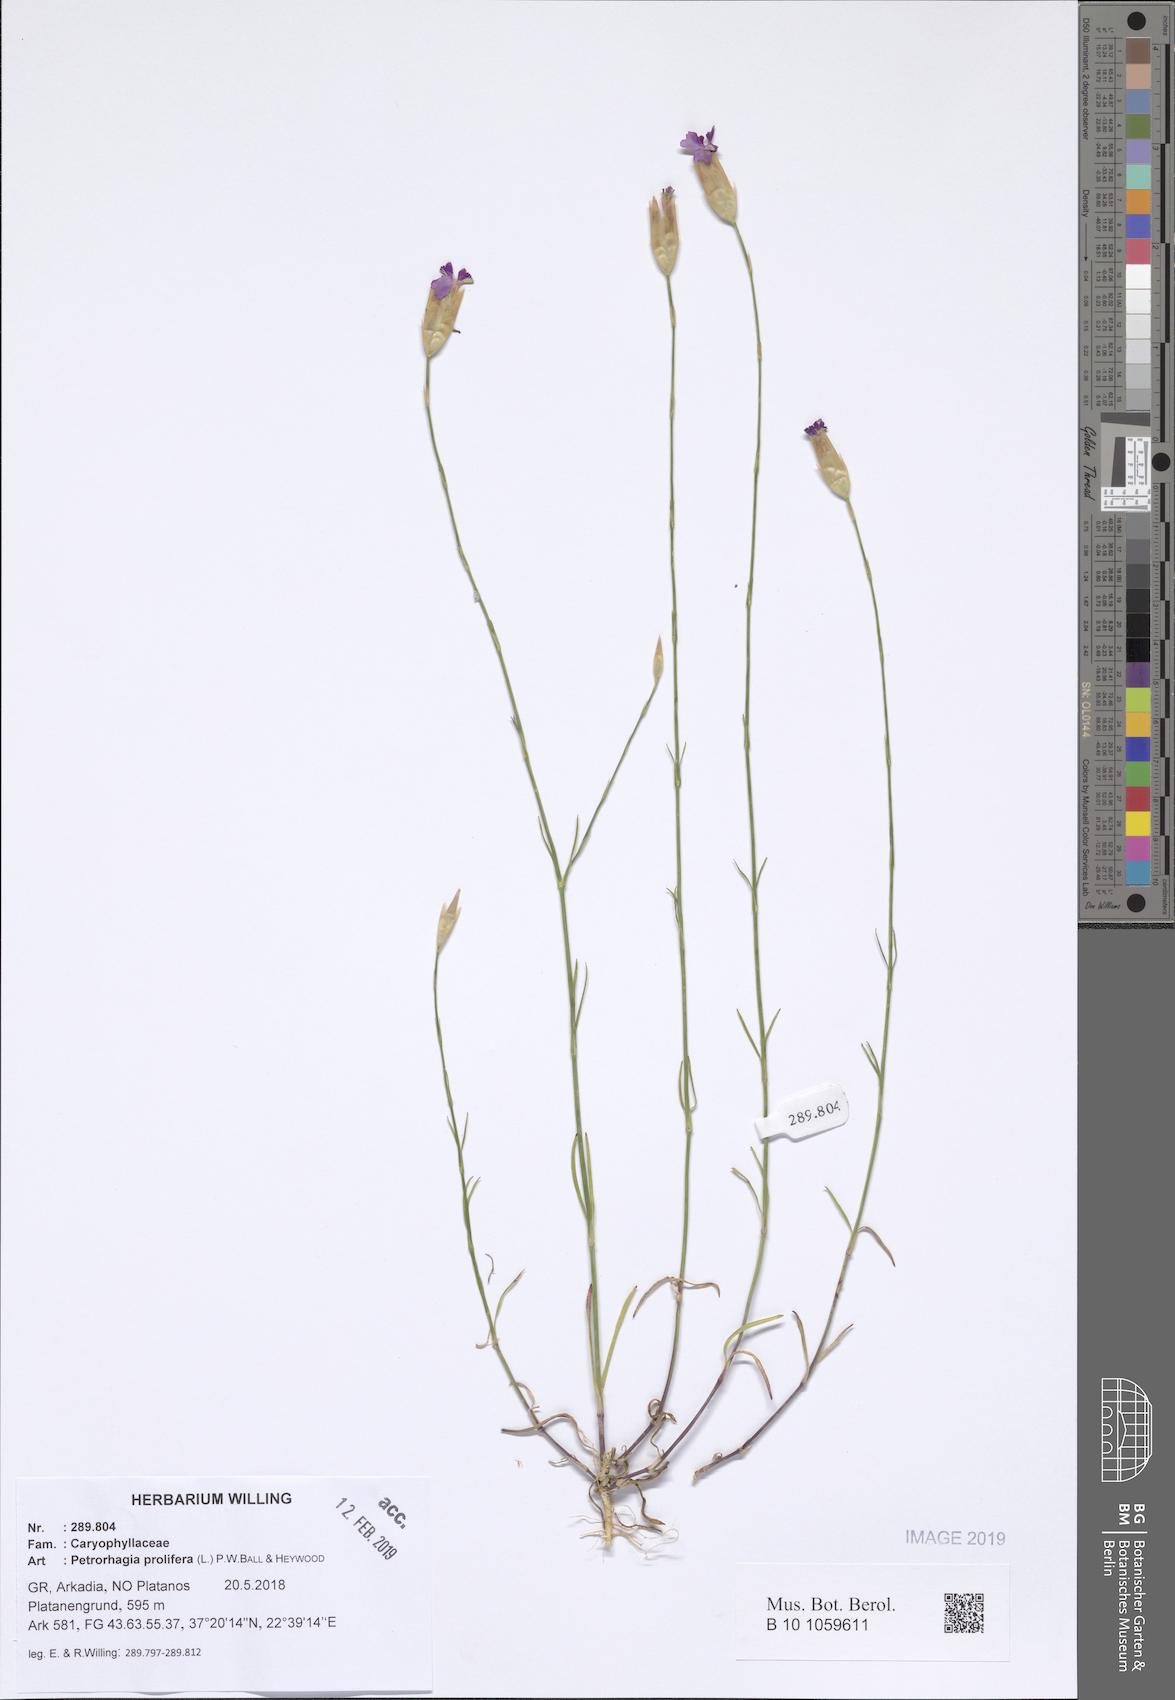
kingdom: Plantae
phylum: Tracheophyta
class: Magnoliopsida
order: Caryophyllales
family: Caryophyllaceae
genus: Petrorhagia
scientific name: Petrorhagia prolifera
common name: Proliferous pink
